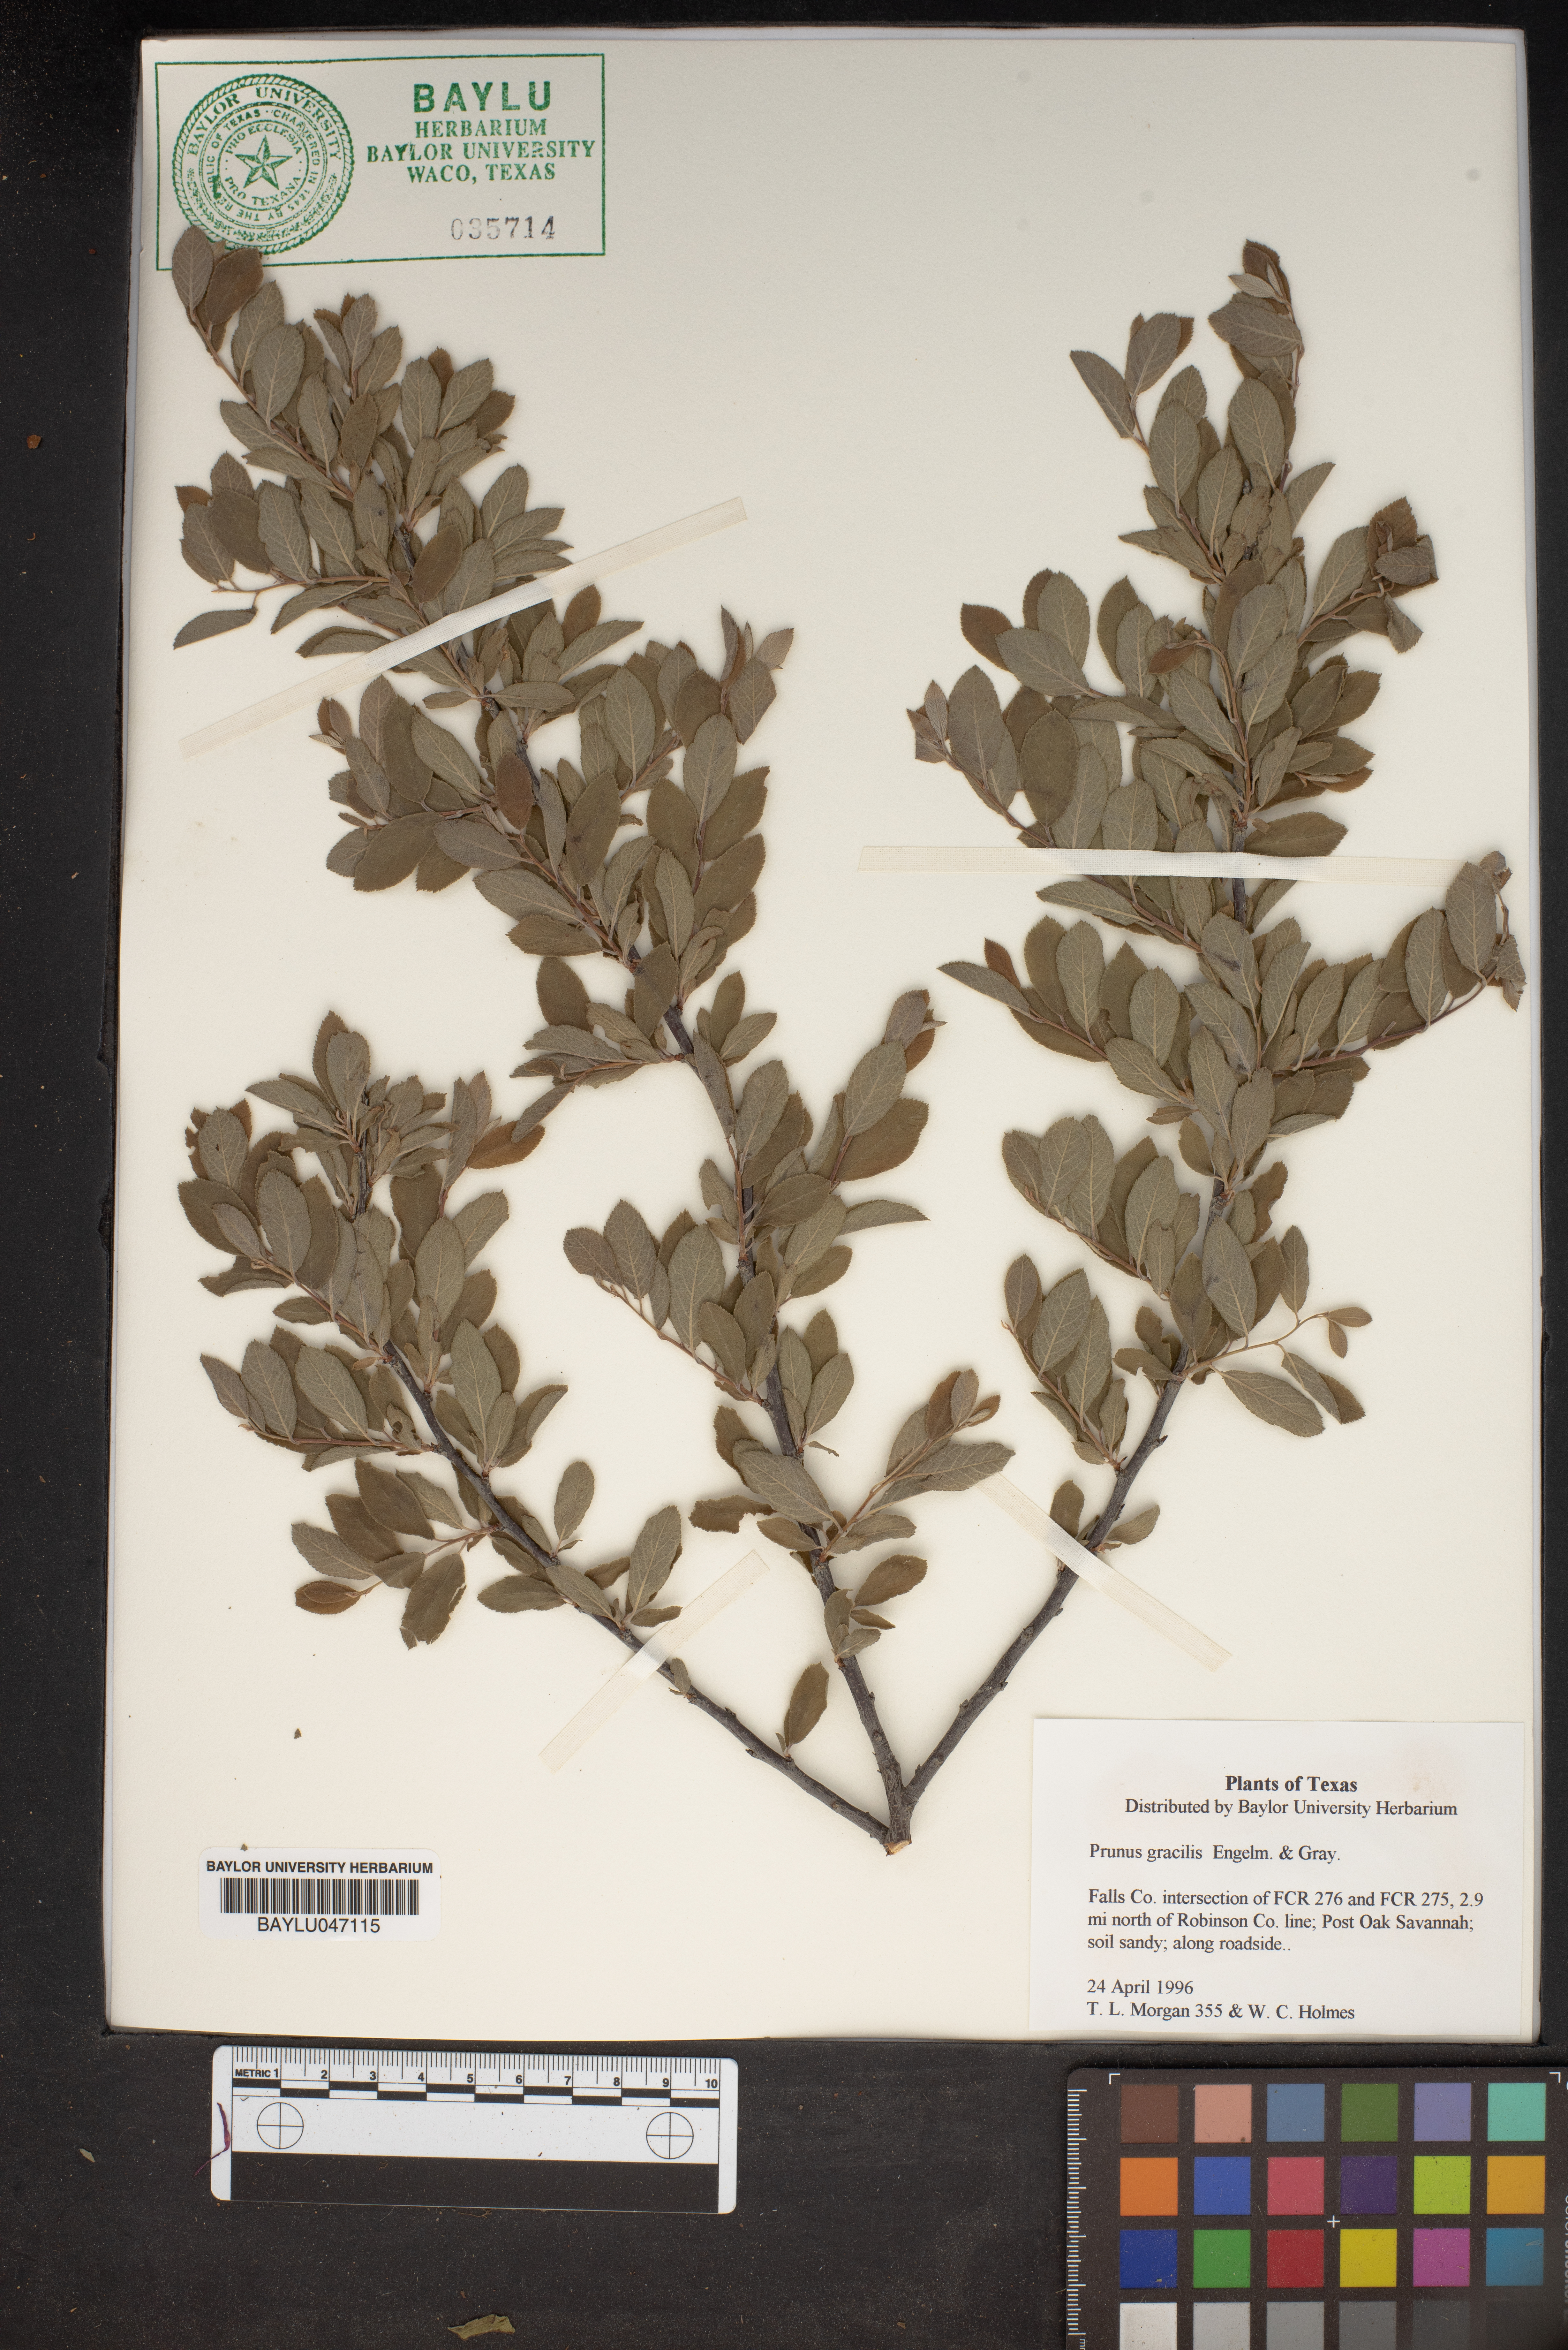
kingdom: Plantae
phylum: Tracheophyta
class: Magnoliopsida
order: Rosales
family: Rosaceae
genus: Prunus
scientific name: Prunus gracilis
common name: Oklahoma plum
